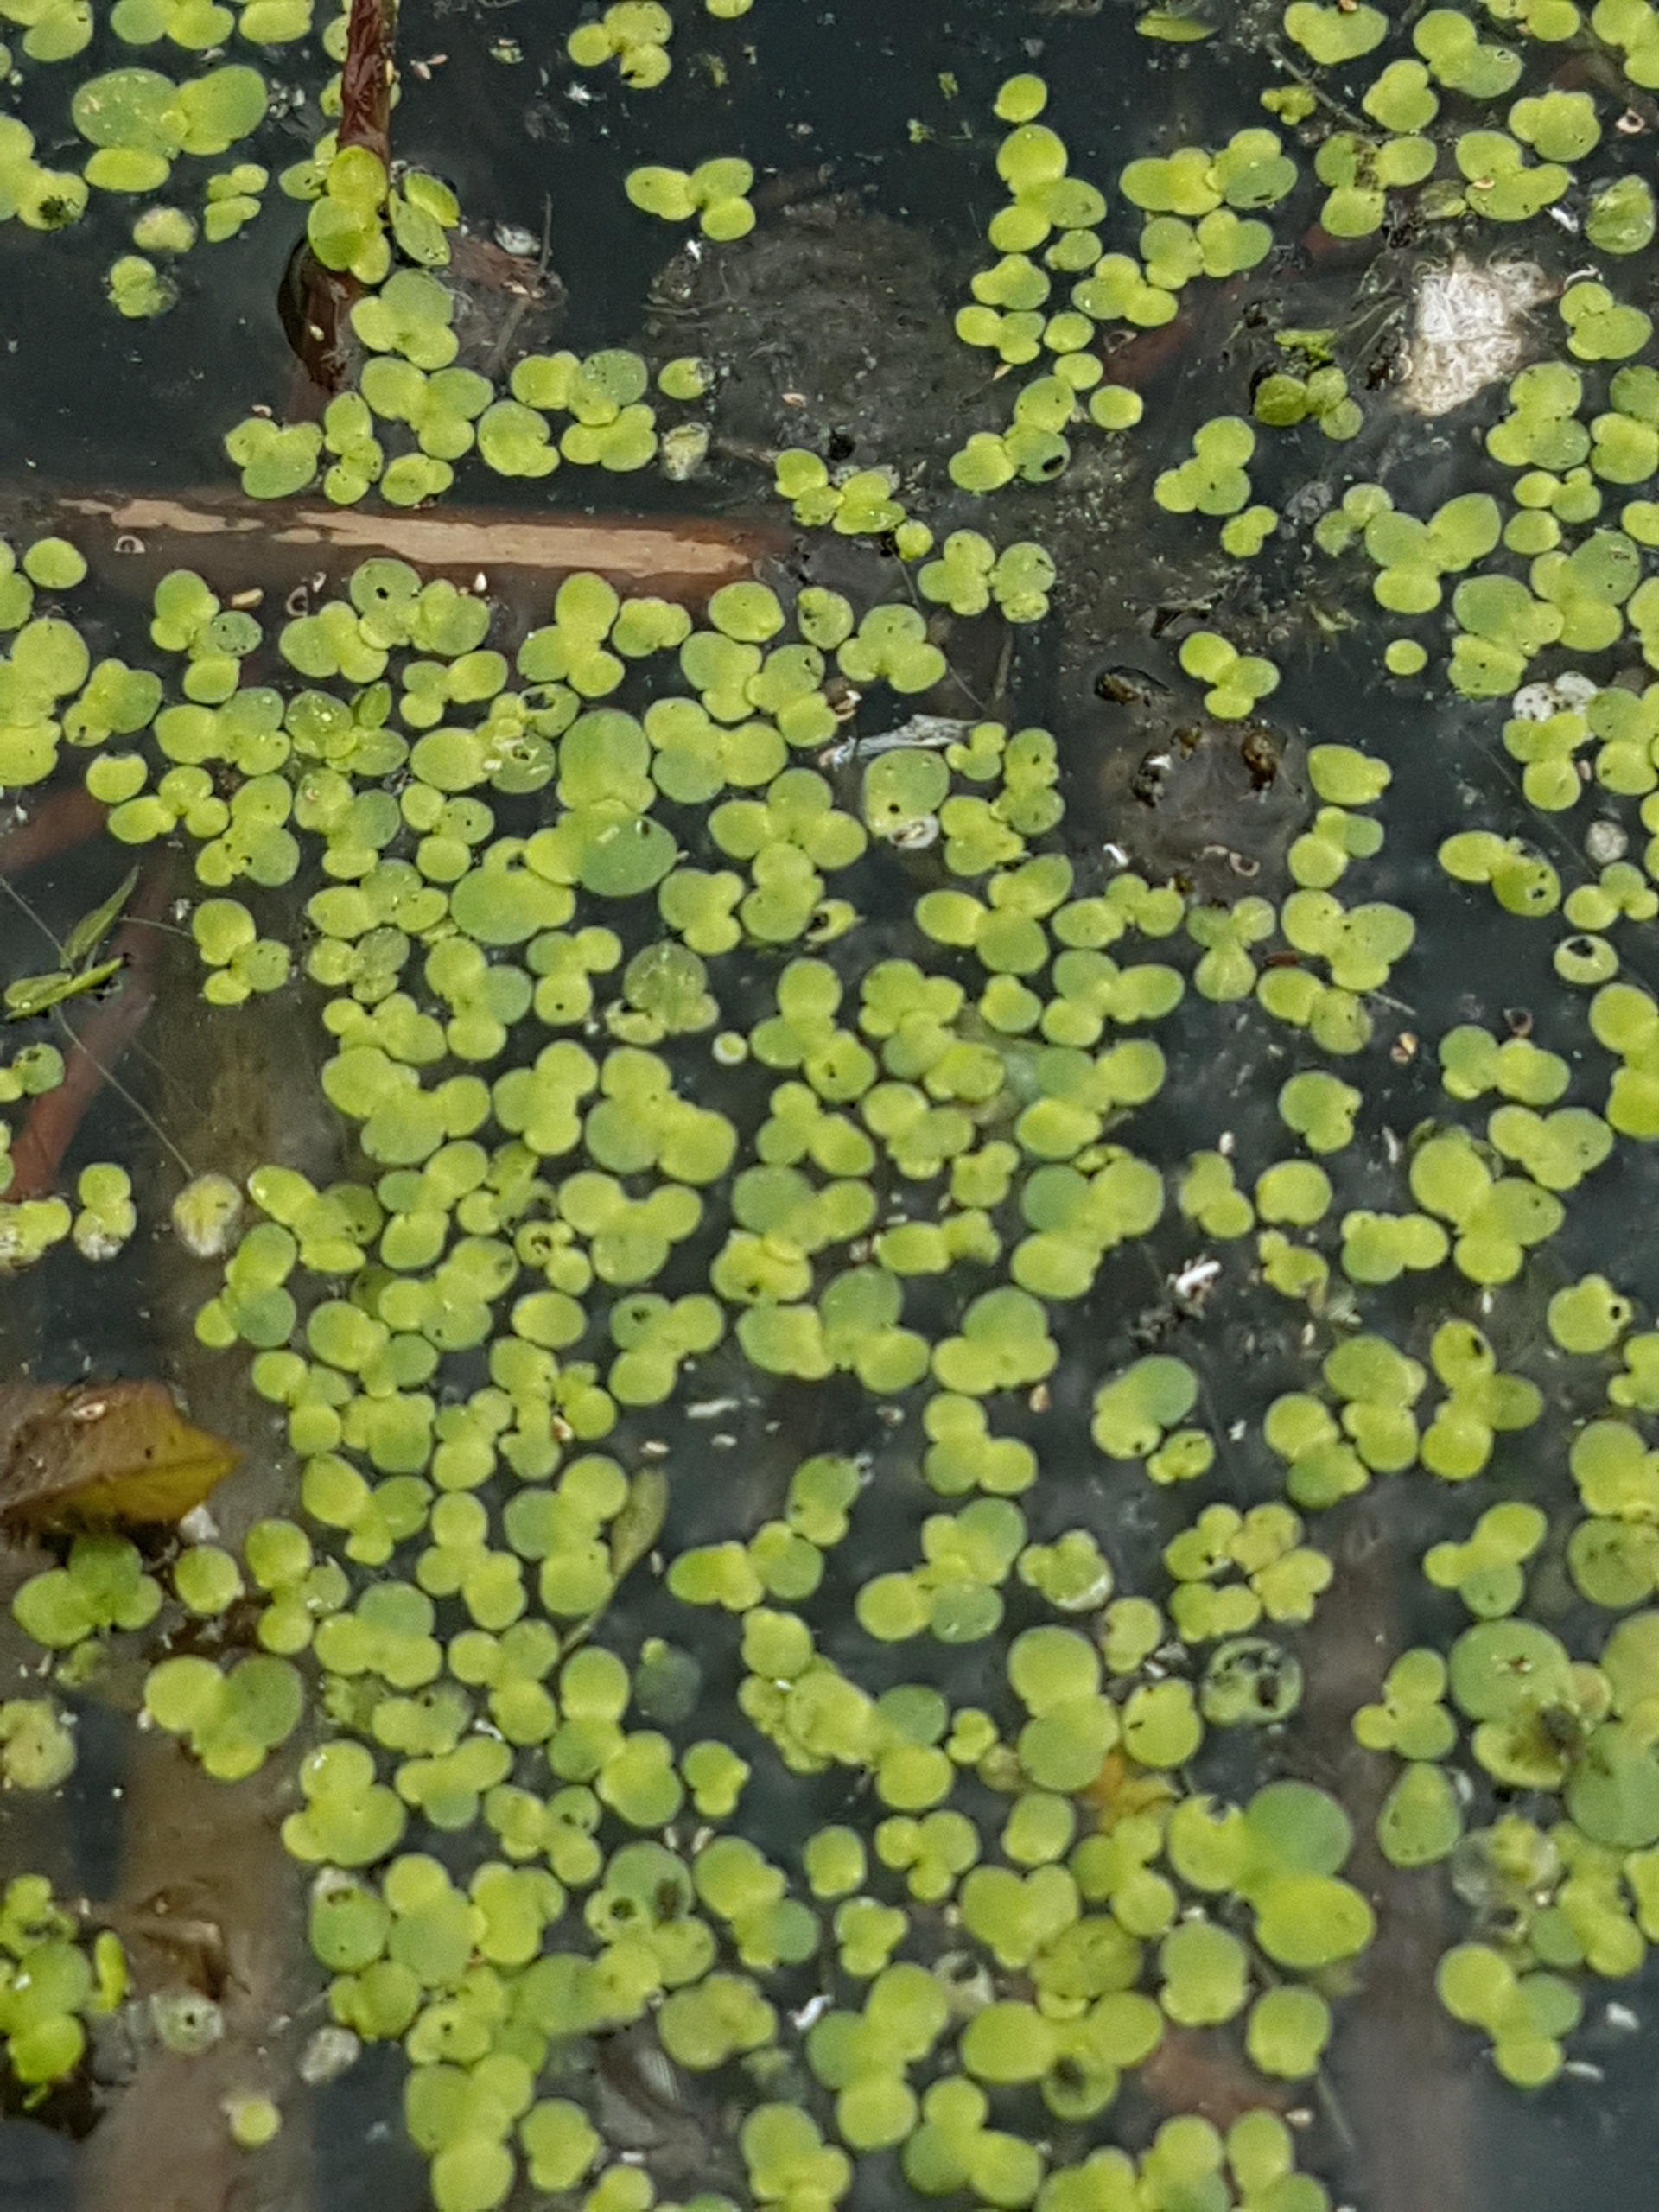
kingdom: Plantae
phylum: Tracheophyta
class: Liliopsida
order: Alismatales
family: Araceae
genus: Lemna
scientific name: Lemna minor
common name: Liden andemad
